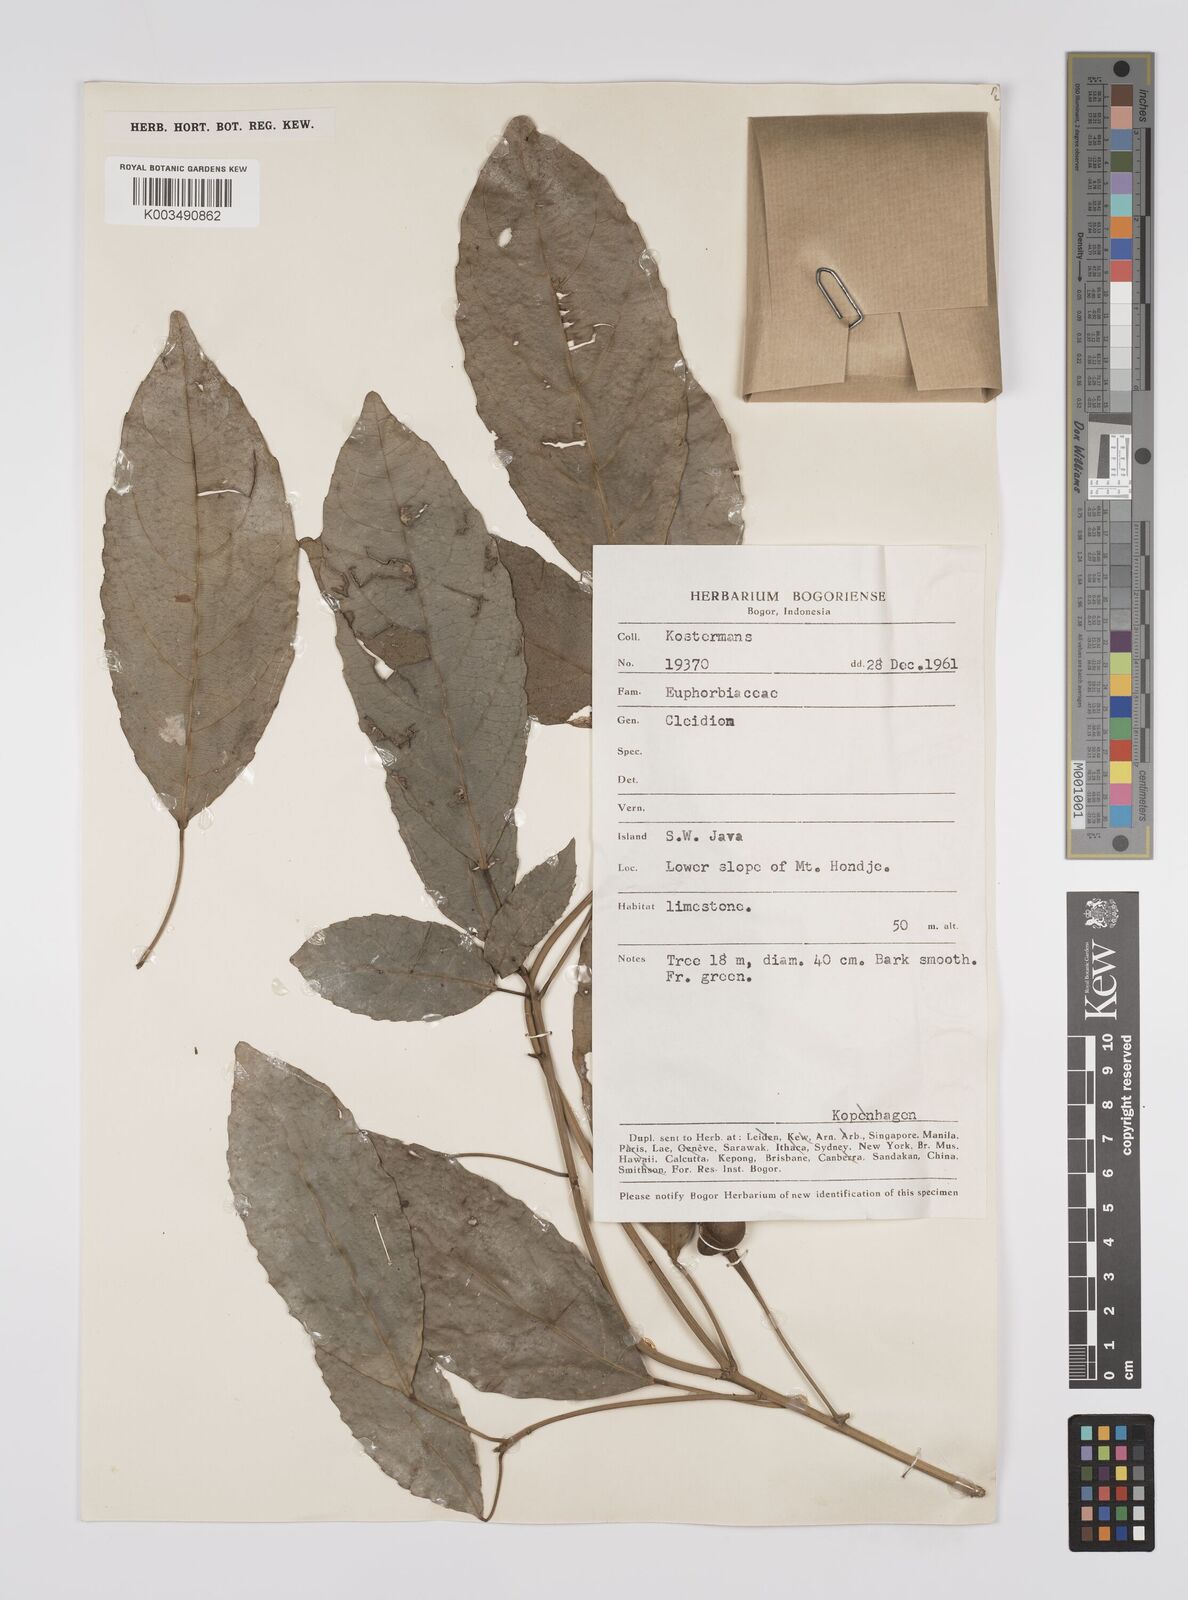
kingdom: Plantae
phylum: Tracheophyta
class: Magnoliopsida
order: Malpighiales
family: Euphorbiaceae
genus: Acalypha
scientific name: Acalypha spiciflora
